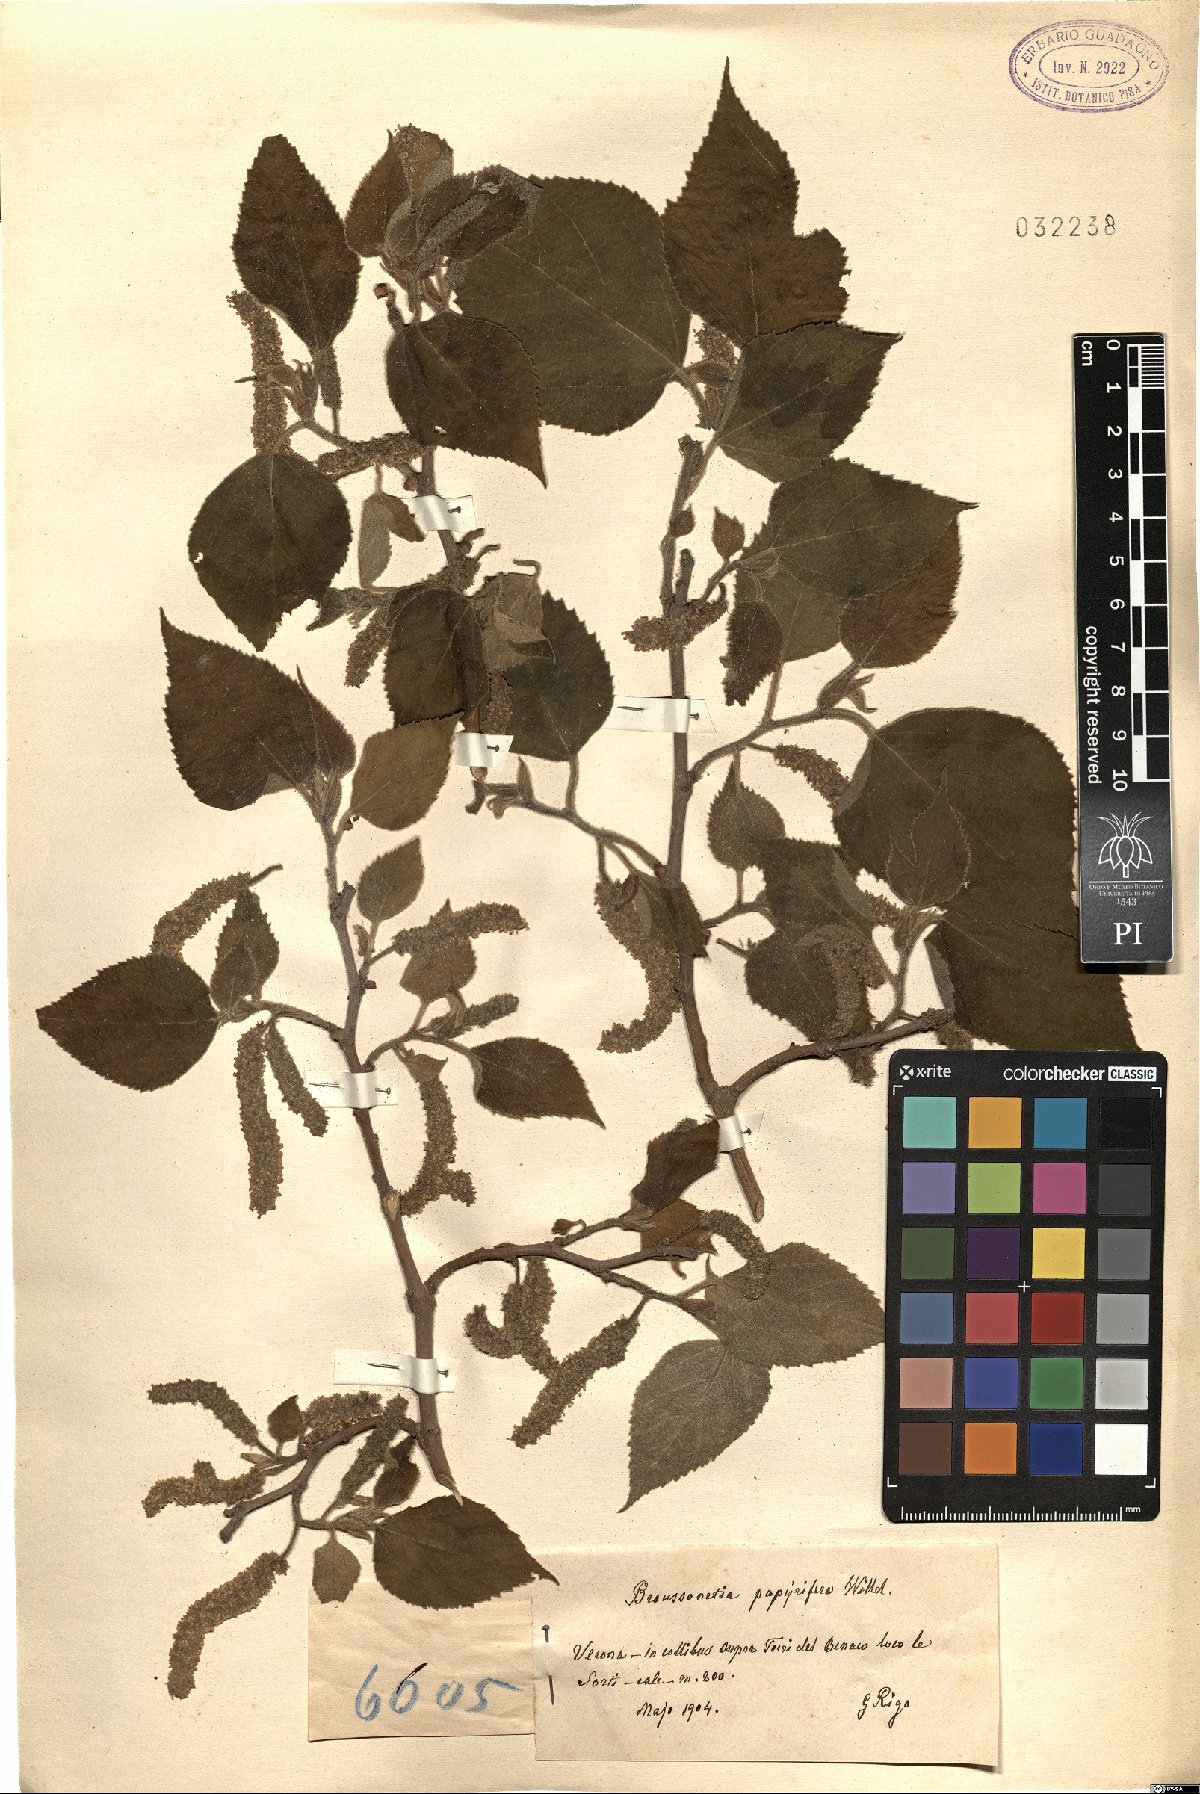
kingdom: Plantae
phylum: Tracheophyta
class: Magnoliopsida
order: Rosales
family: Moraceae
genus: Broussonetia
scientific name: Broussonetia papyrifera
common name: Paper mulberry
